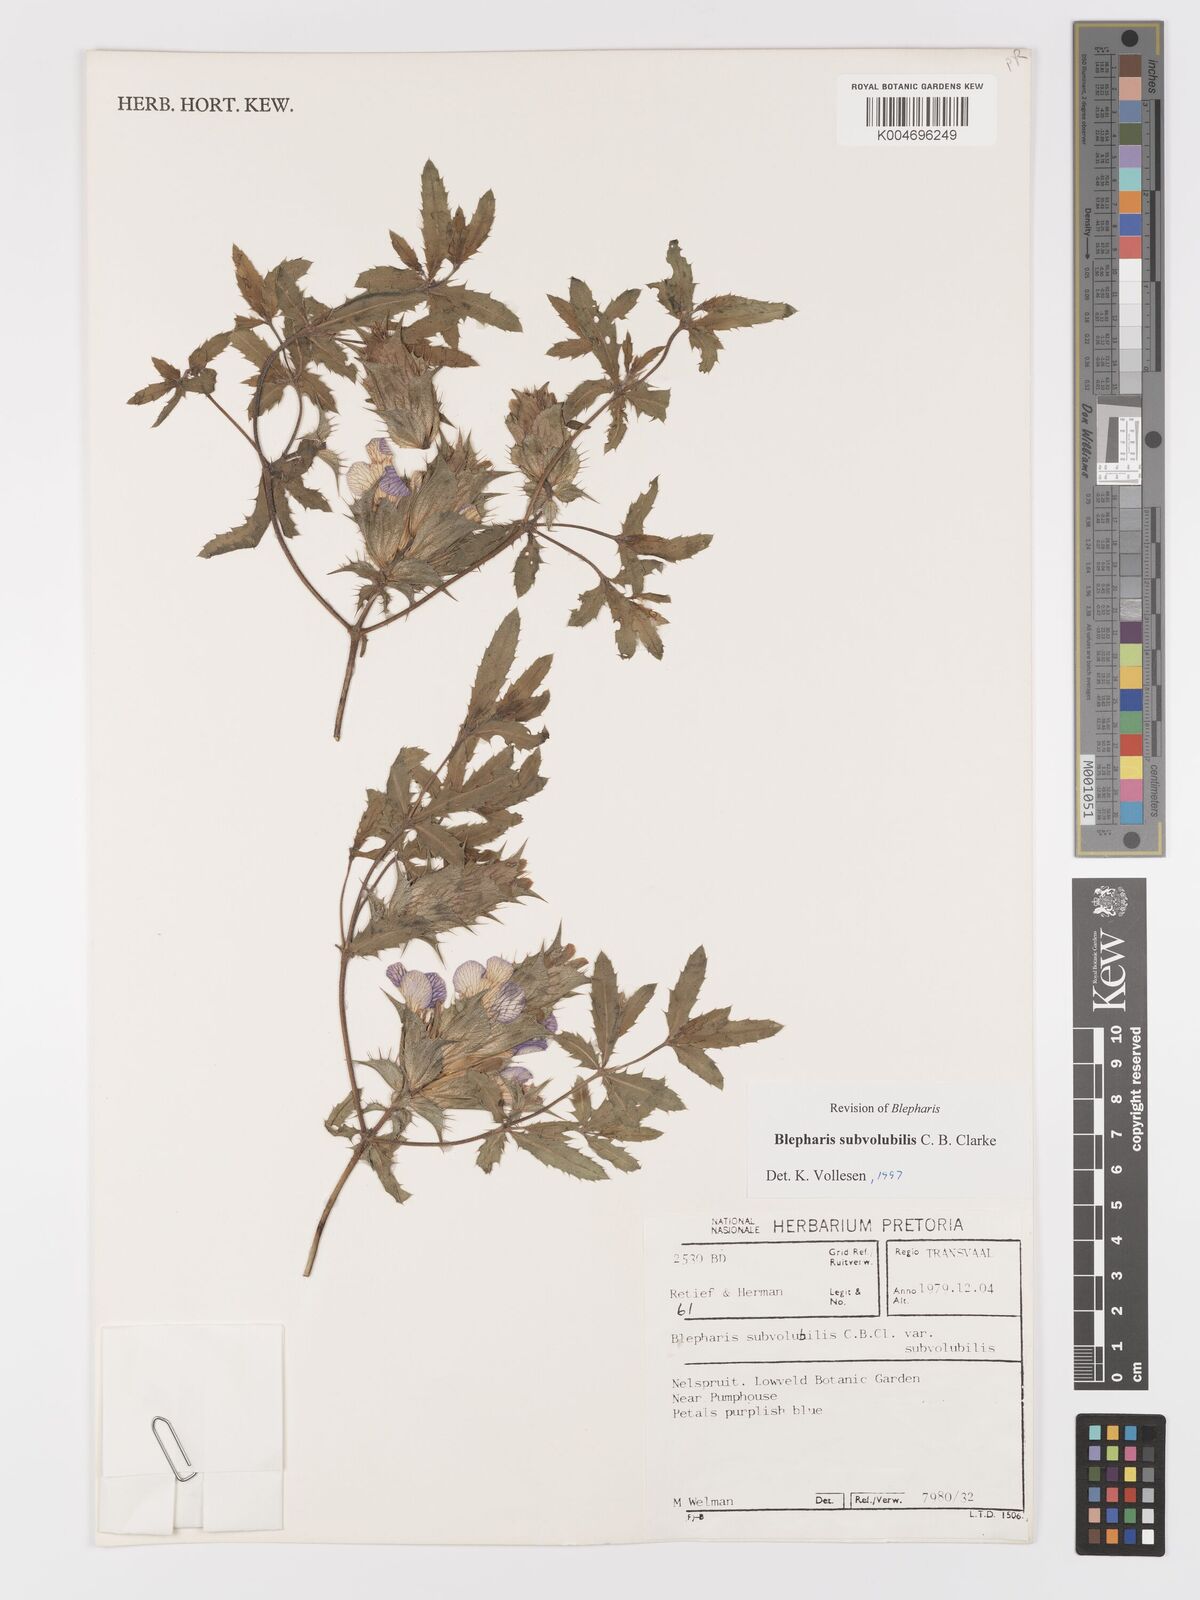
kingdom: Plantae
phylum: Tracheophyta
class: Magnoliopsida
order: Lamiales
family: Acanthaceae
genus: Blepharis
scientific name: Blepharis subvolubilis
